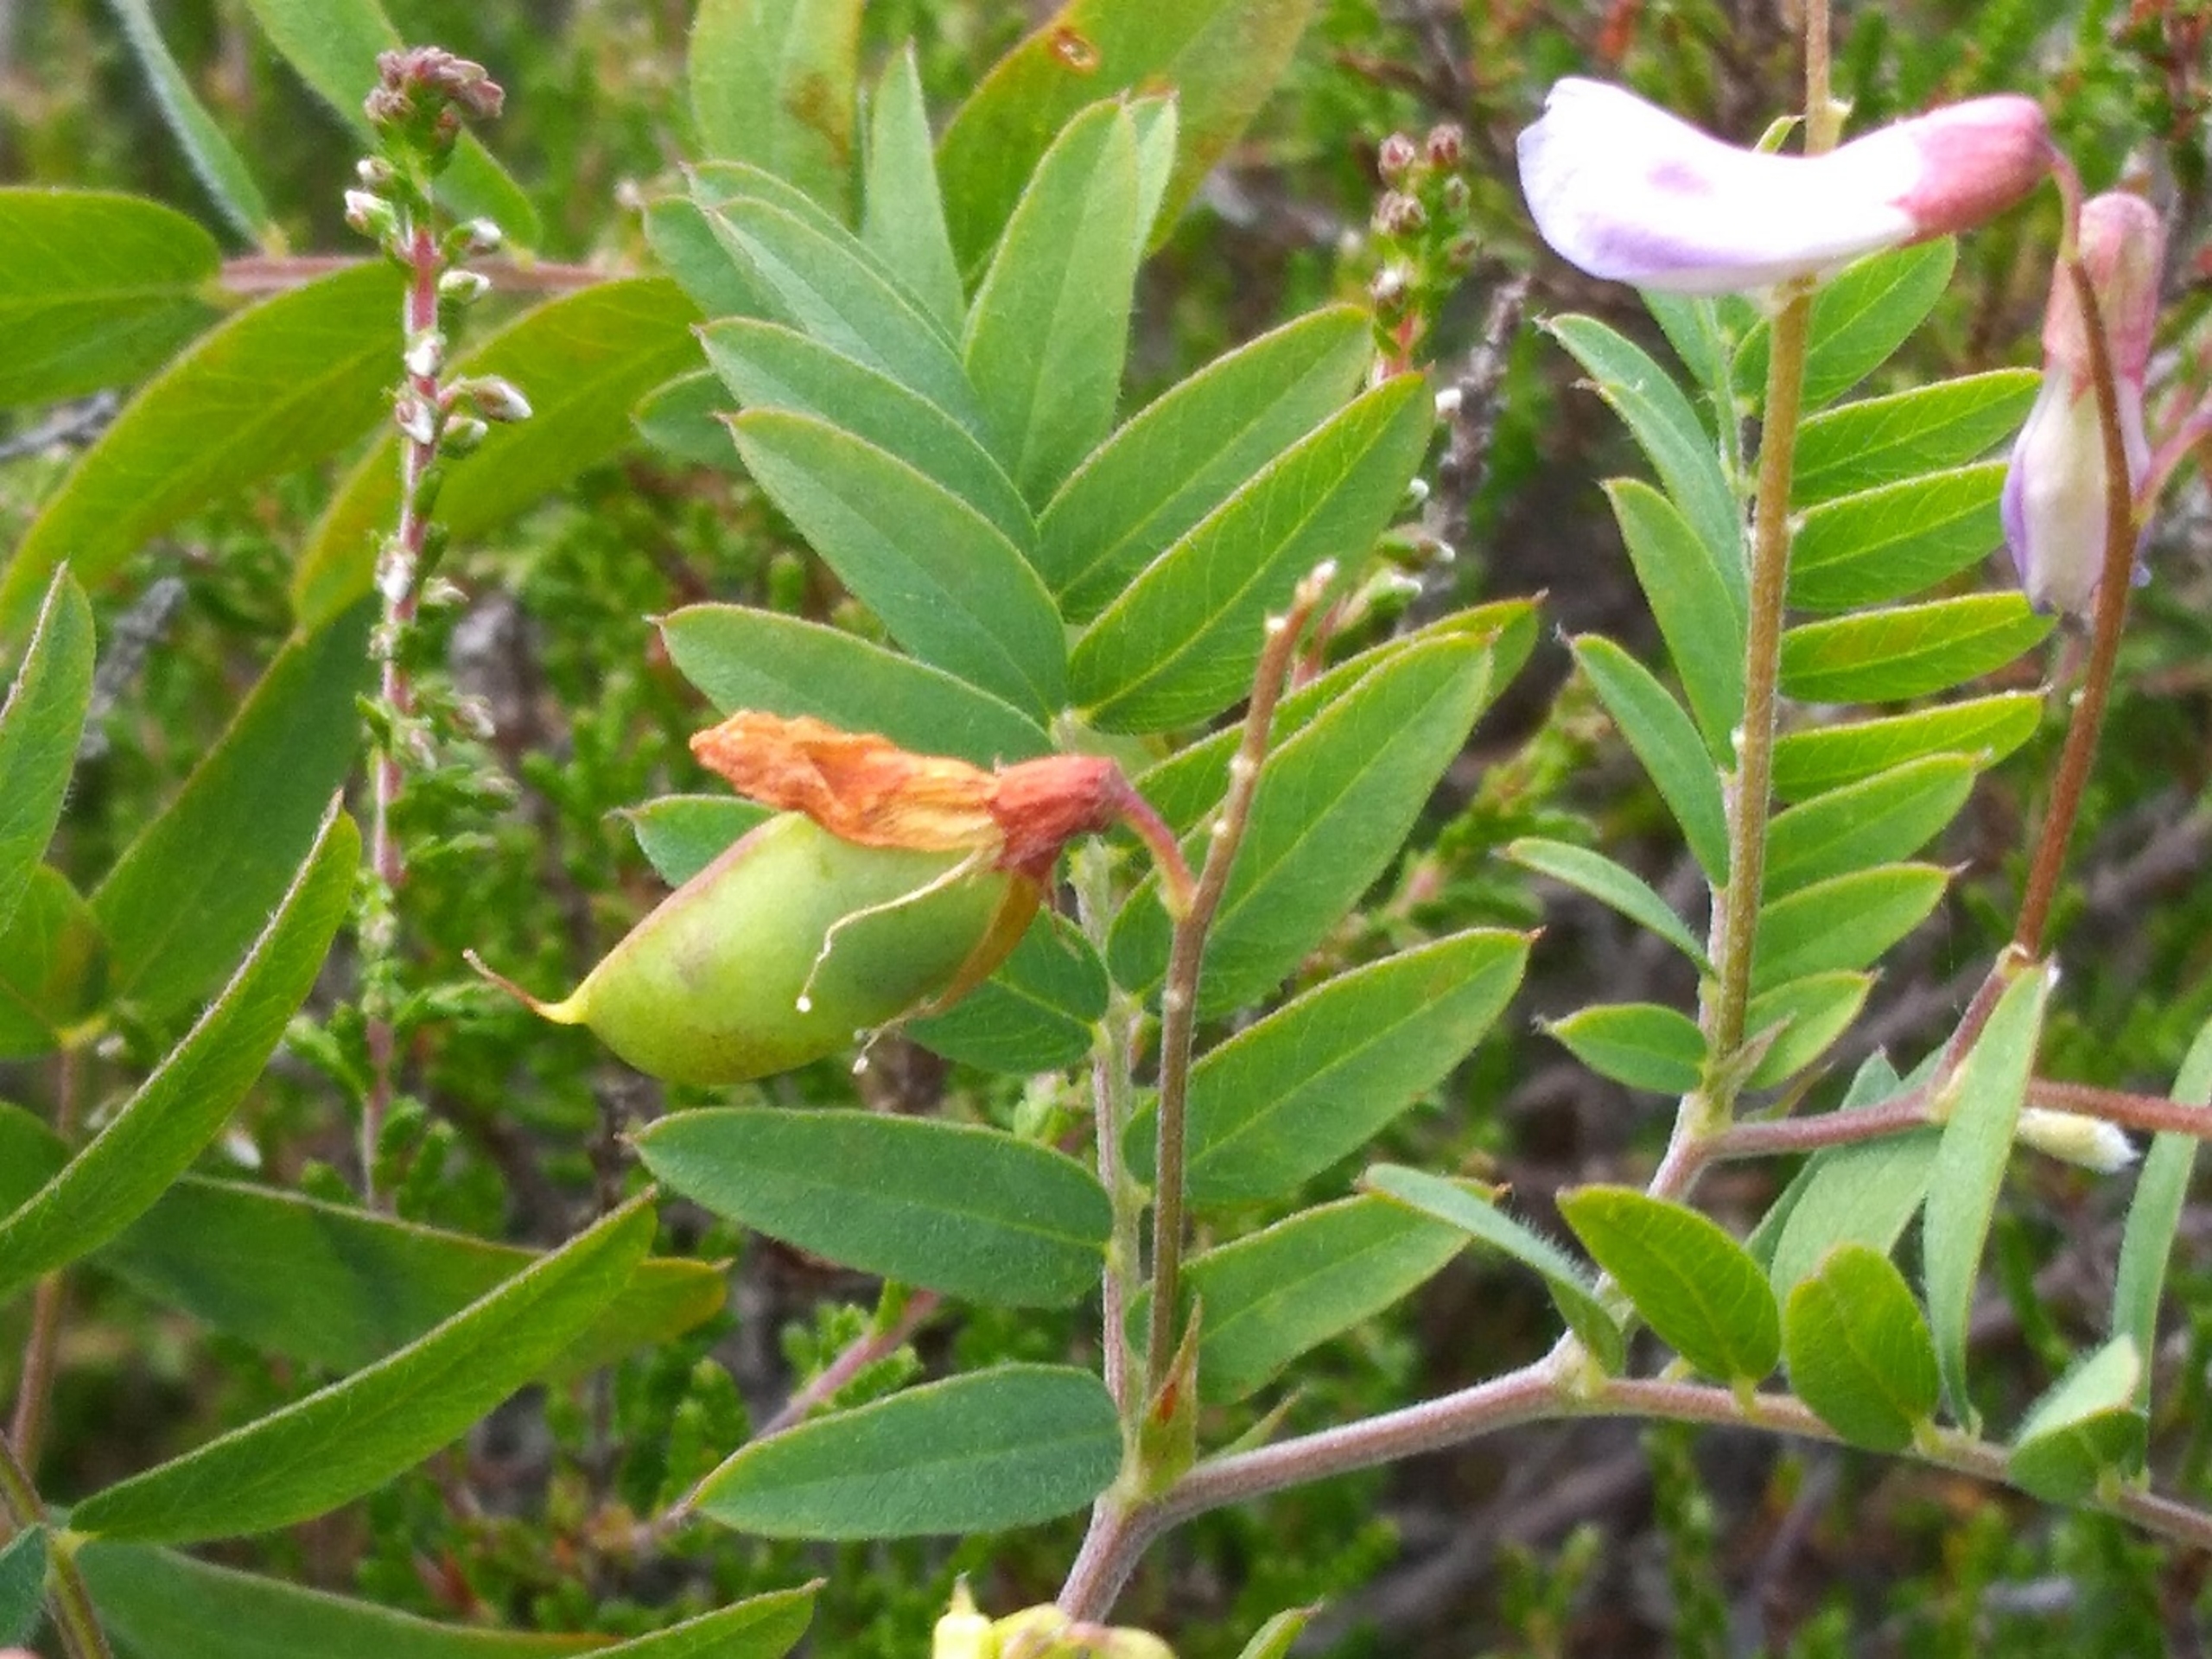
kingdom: Plantae
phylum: Tracheophyta
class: Magnoliopsida
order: Fabales
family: Fabaceae
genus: Vicia
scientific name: Vicia cassubica
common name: Kassubisk vikke
